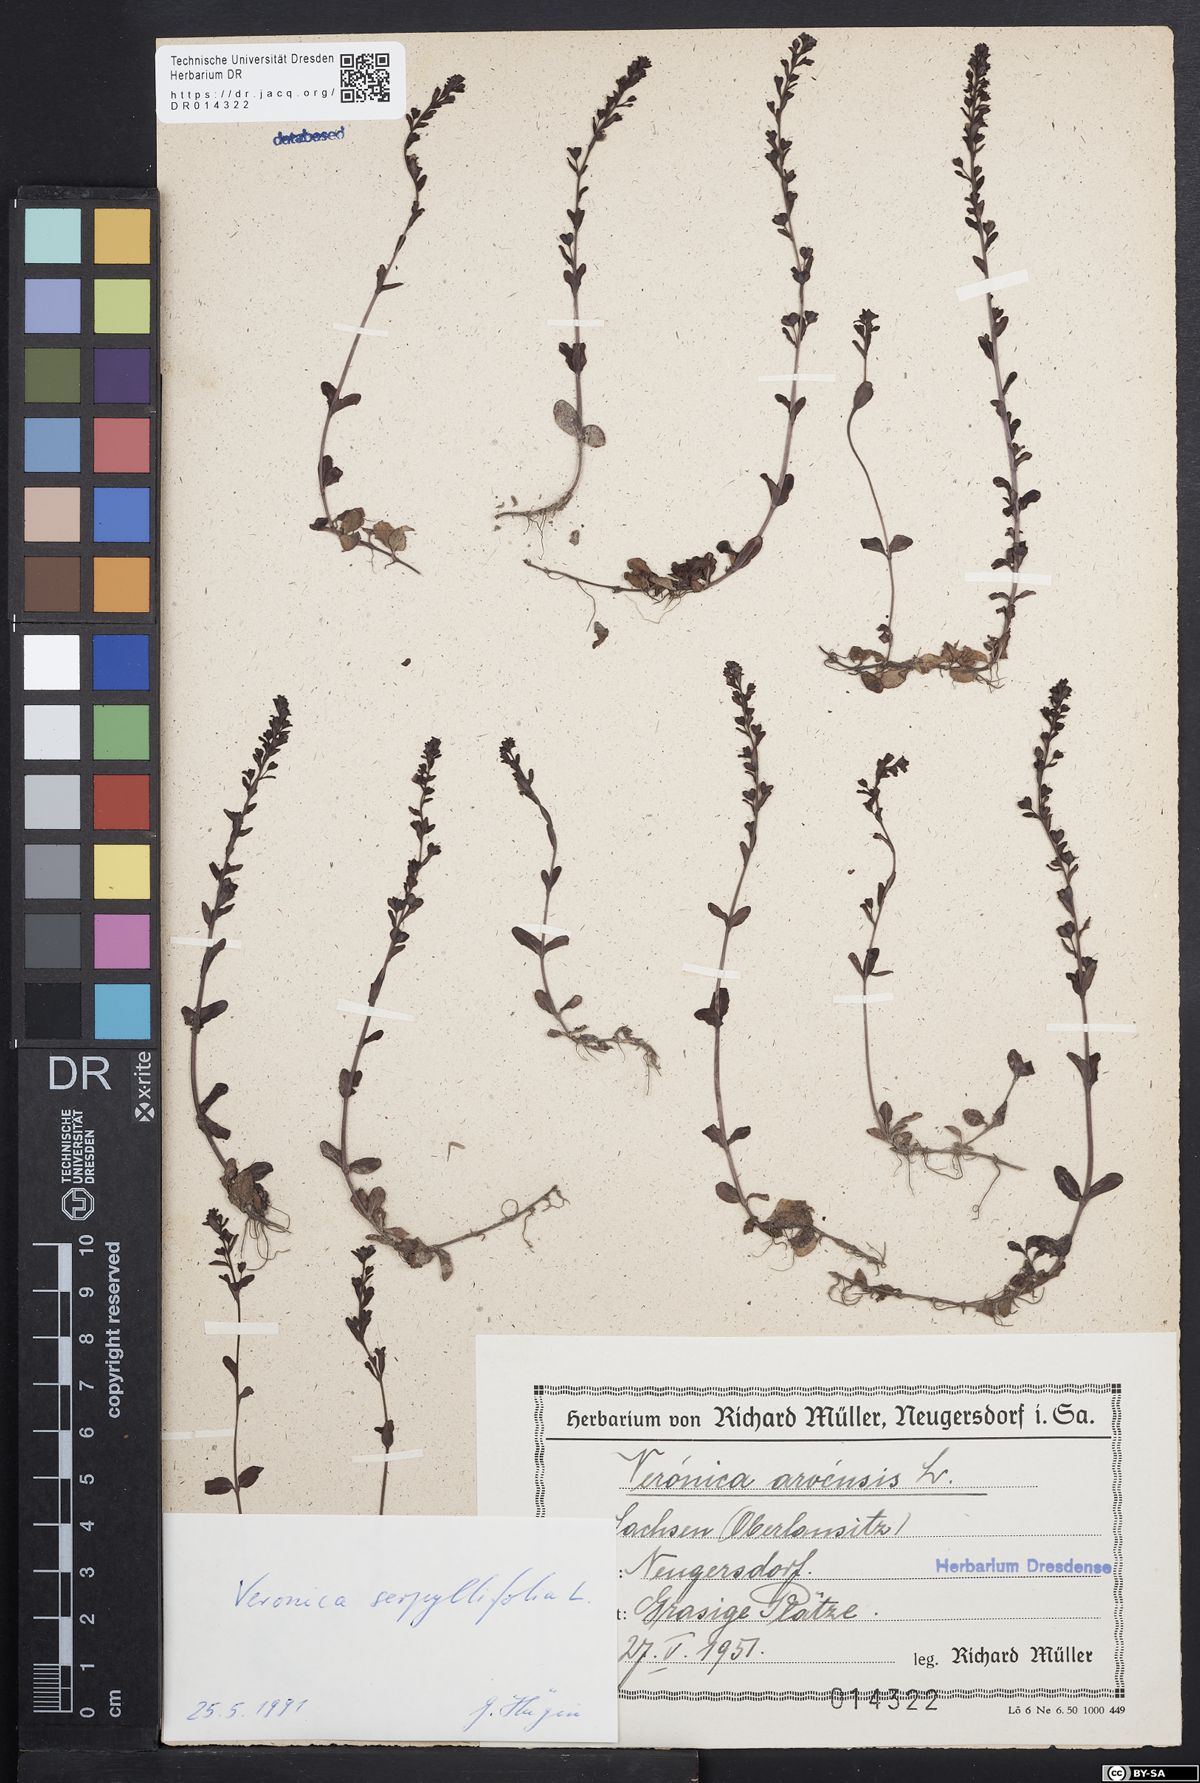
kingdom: Plantae
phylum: Tracheophyta
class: Magnoliopsida
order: Lamiales
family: Plantaginaceae
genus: Veronica
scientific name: Veronica serpyllifolia
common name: Thyme-leaved speedwell
